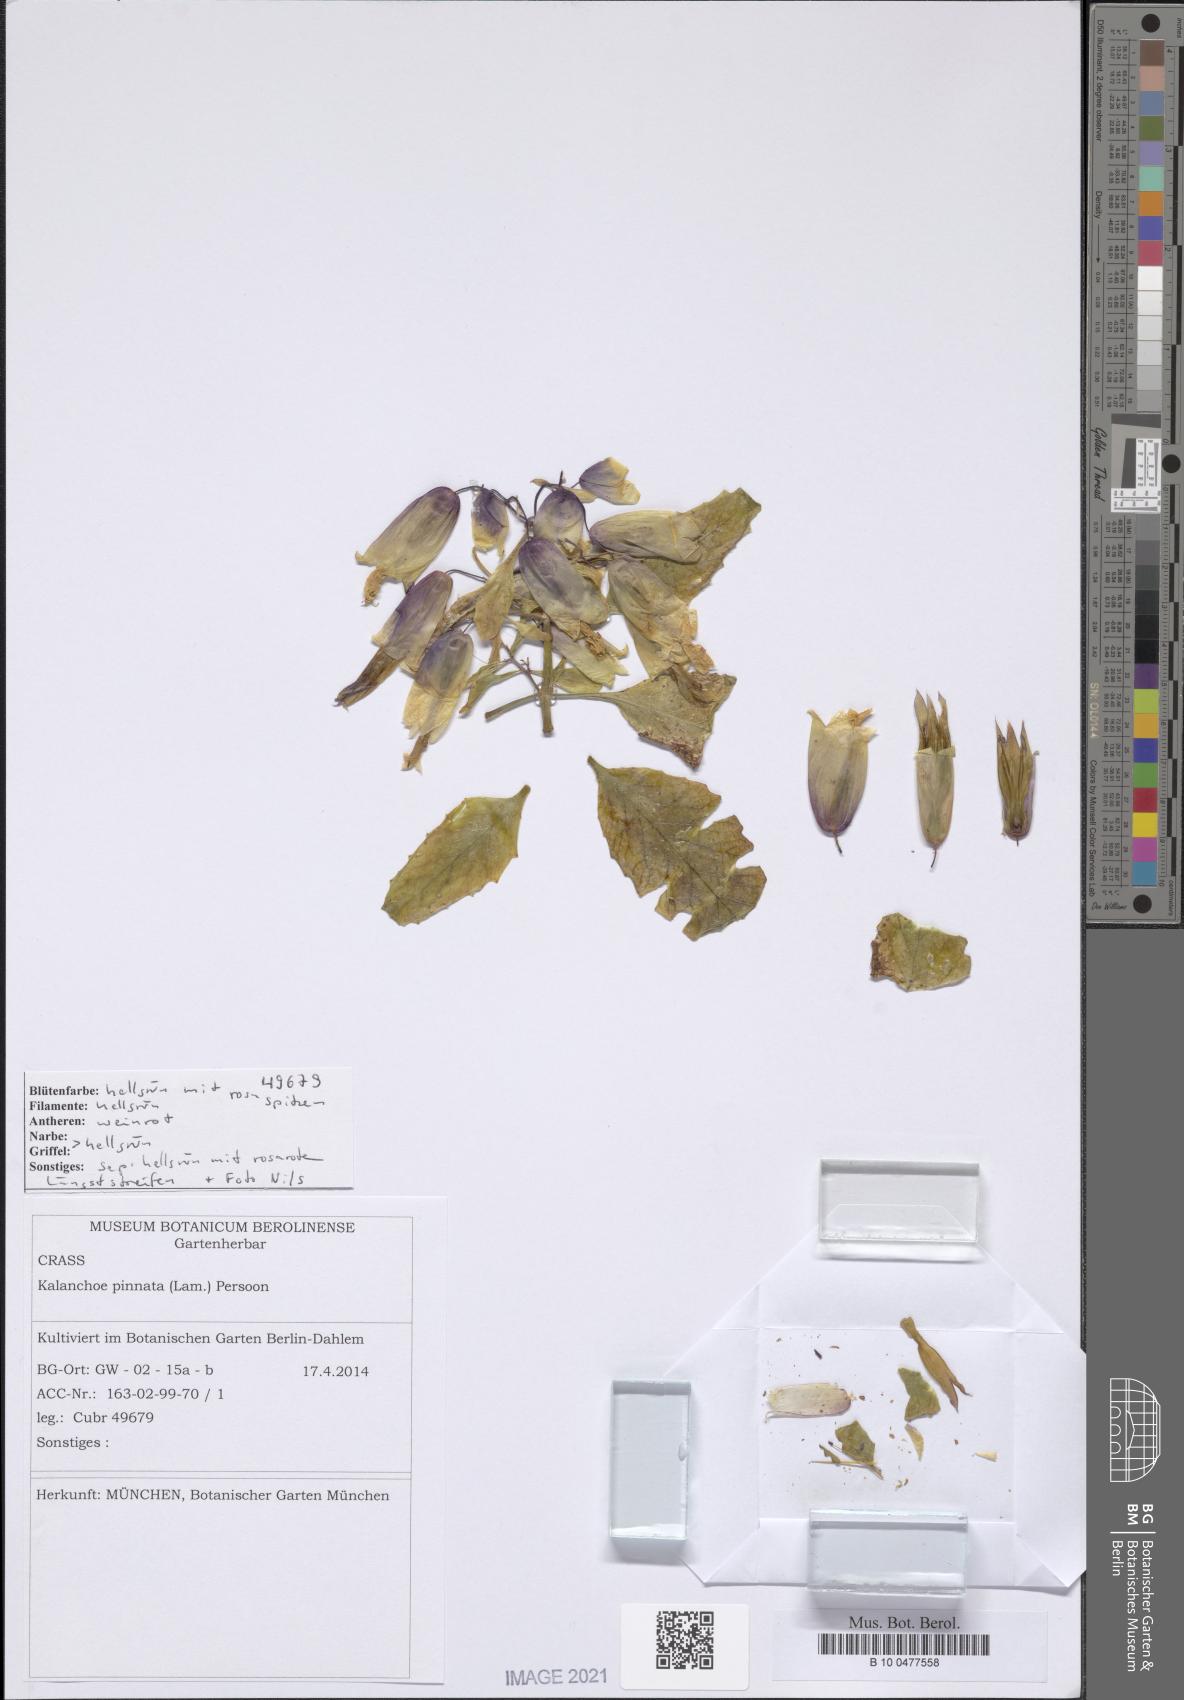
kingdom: Plantae
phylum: Tracheophyta
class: Magnoliopsida
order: Saxifragales
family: Crassulaceae
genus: Kalanchoe
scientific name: Kalanchoe pinnata
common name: Cathedral bells
